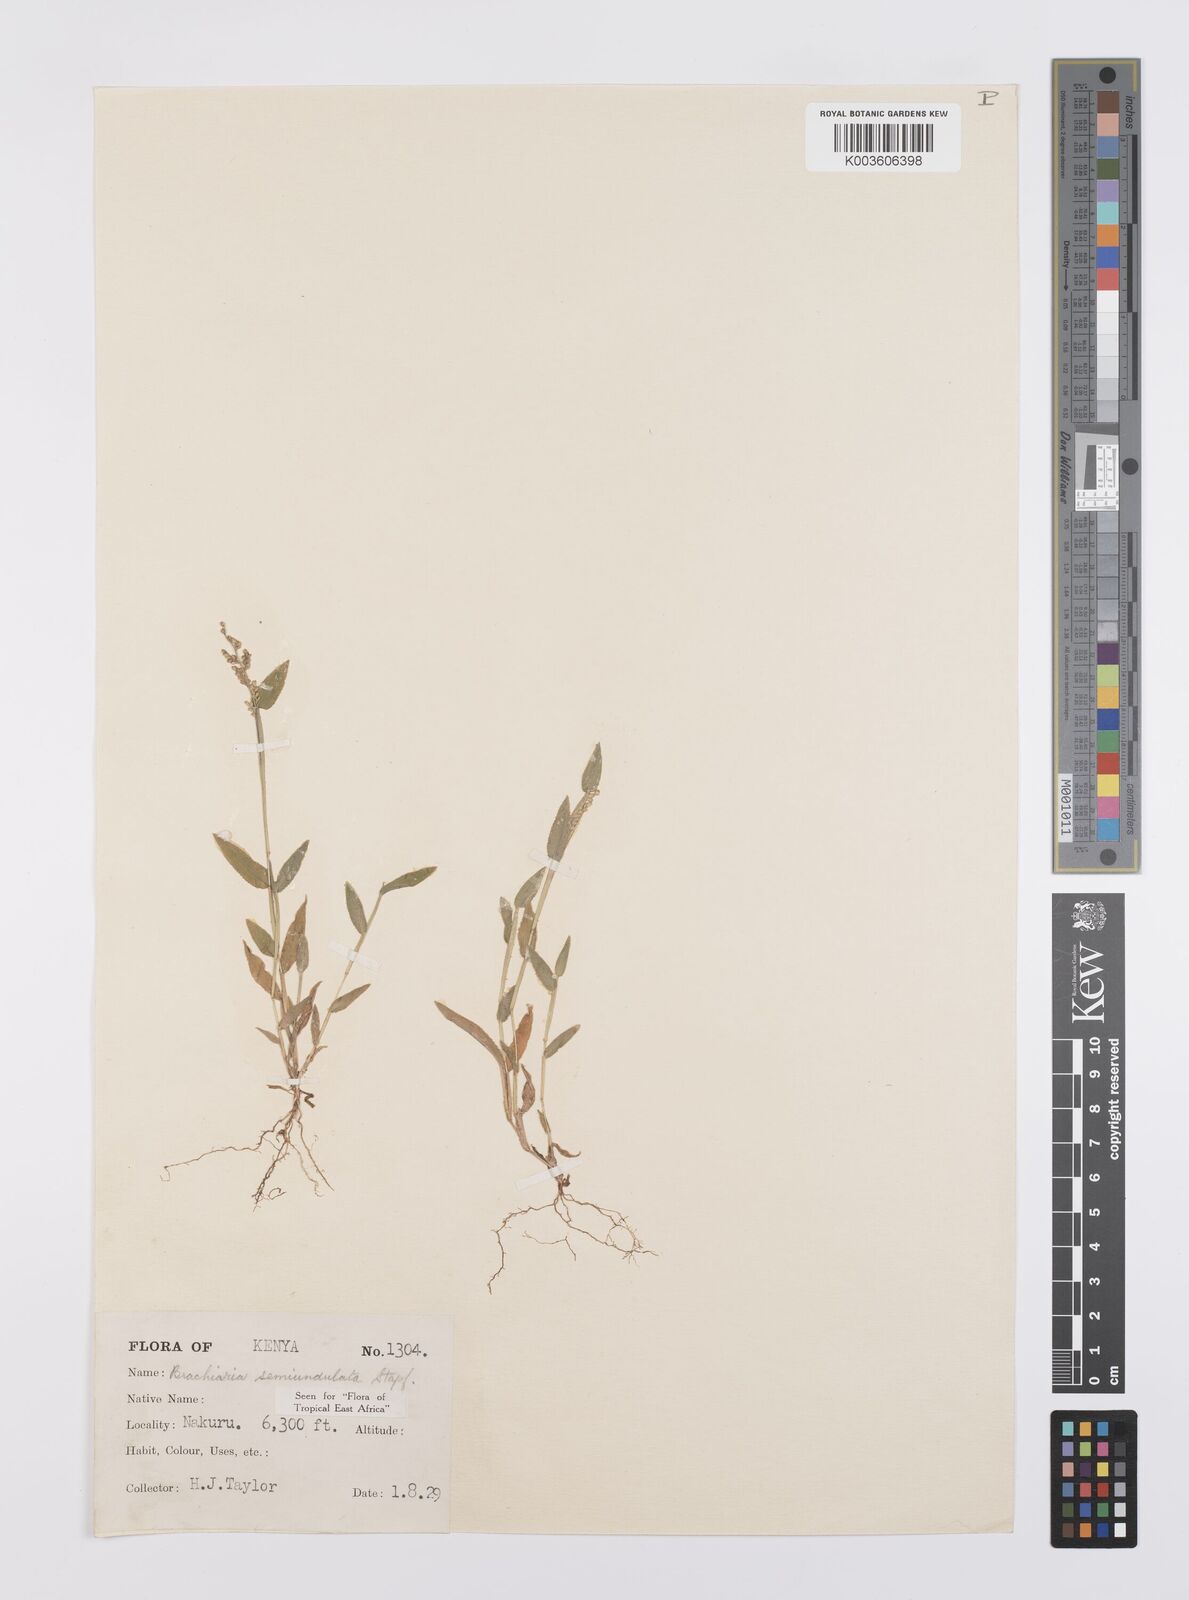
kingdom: Plantae
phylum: Tracheophyta
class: Liliopsida
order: Poales
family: Poaceae
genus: Urochloa
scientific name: Urochloa semiundulata
